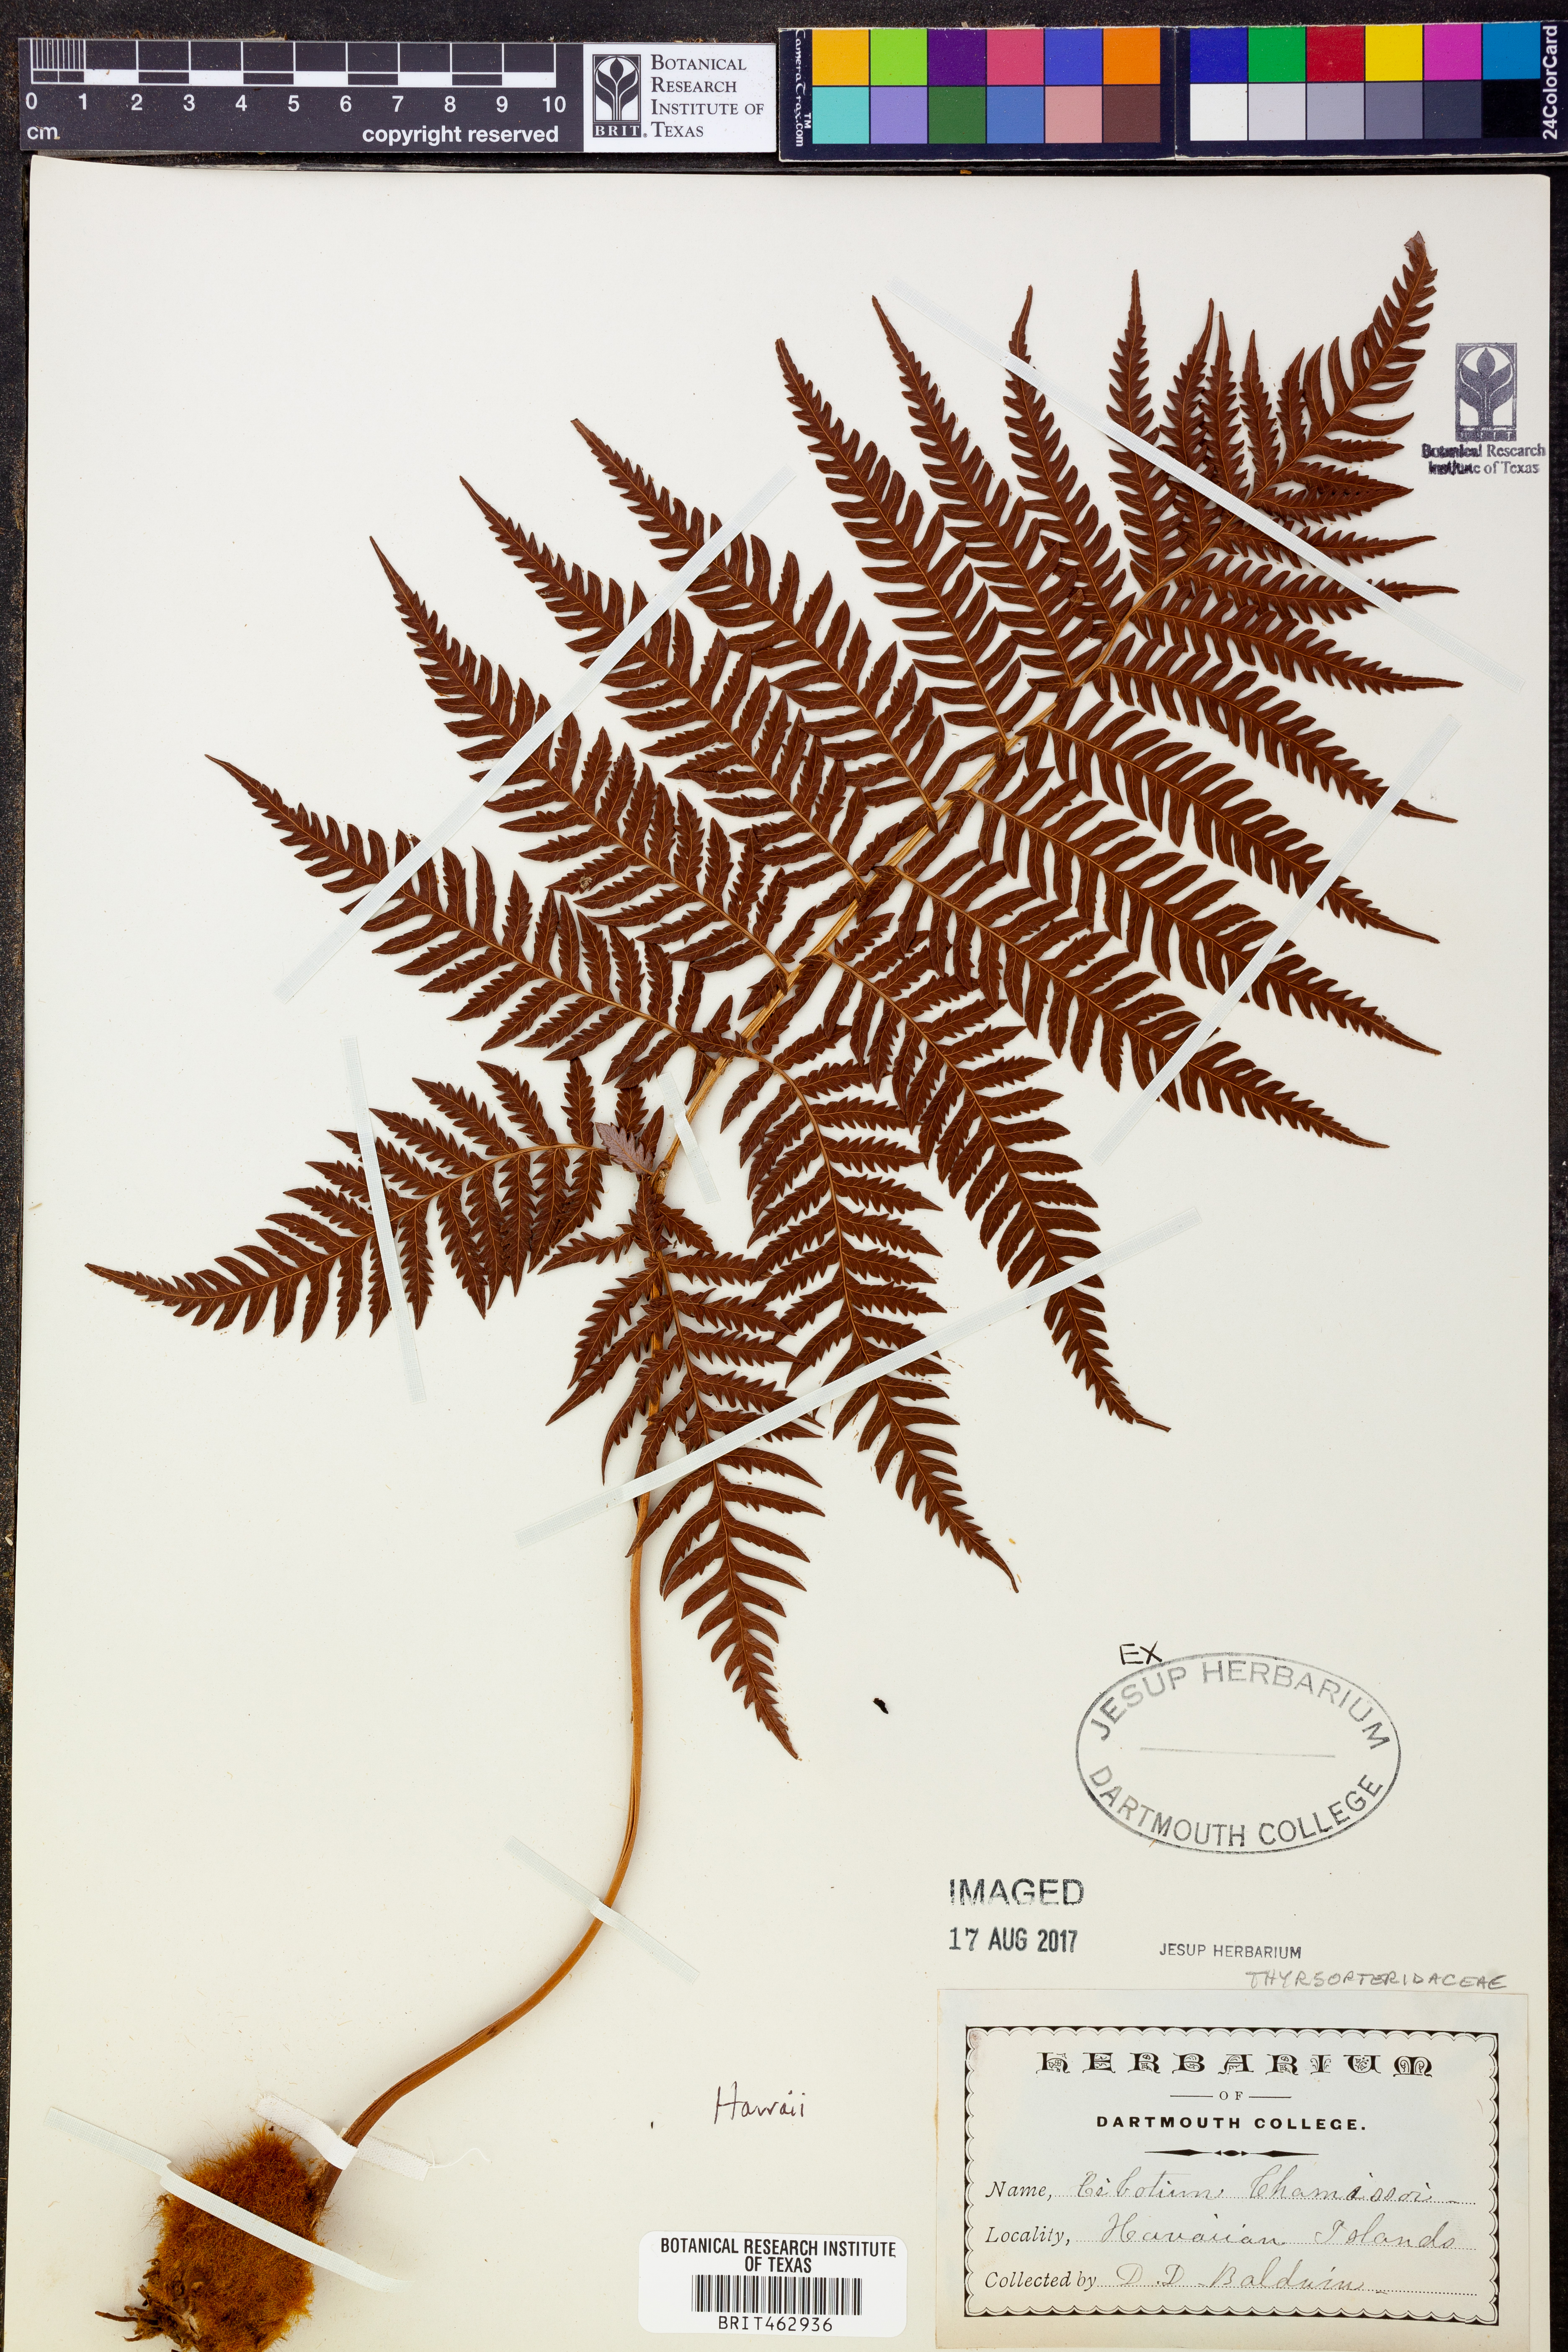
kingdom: Plantae
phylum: Tracheophyta
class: Polypodiopsida
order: Cyatheales
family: Cibotiaceae
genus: Cibotium
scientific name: Cibotium chamissoi
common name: Hawaiian tree fern
